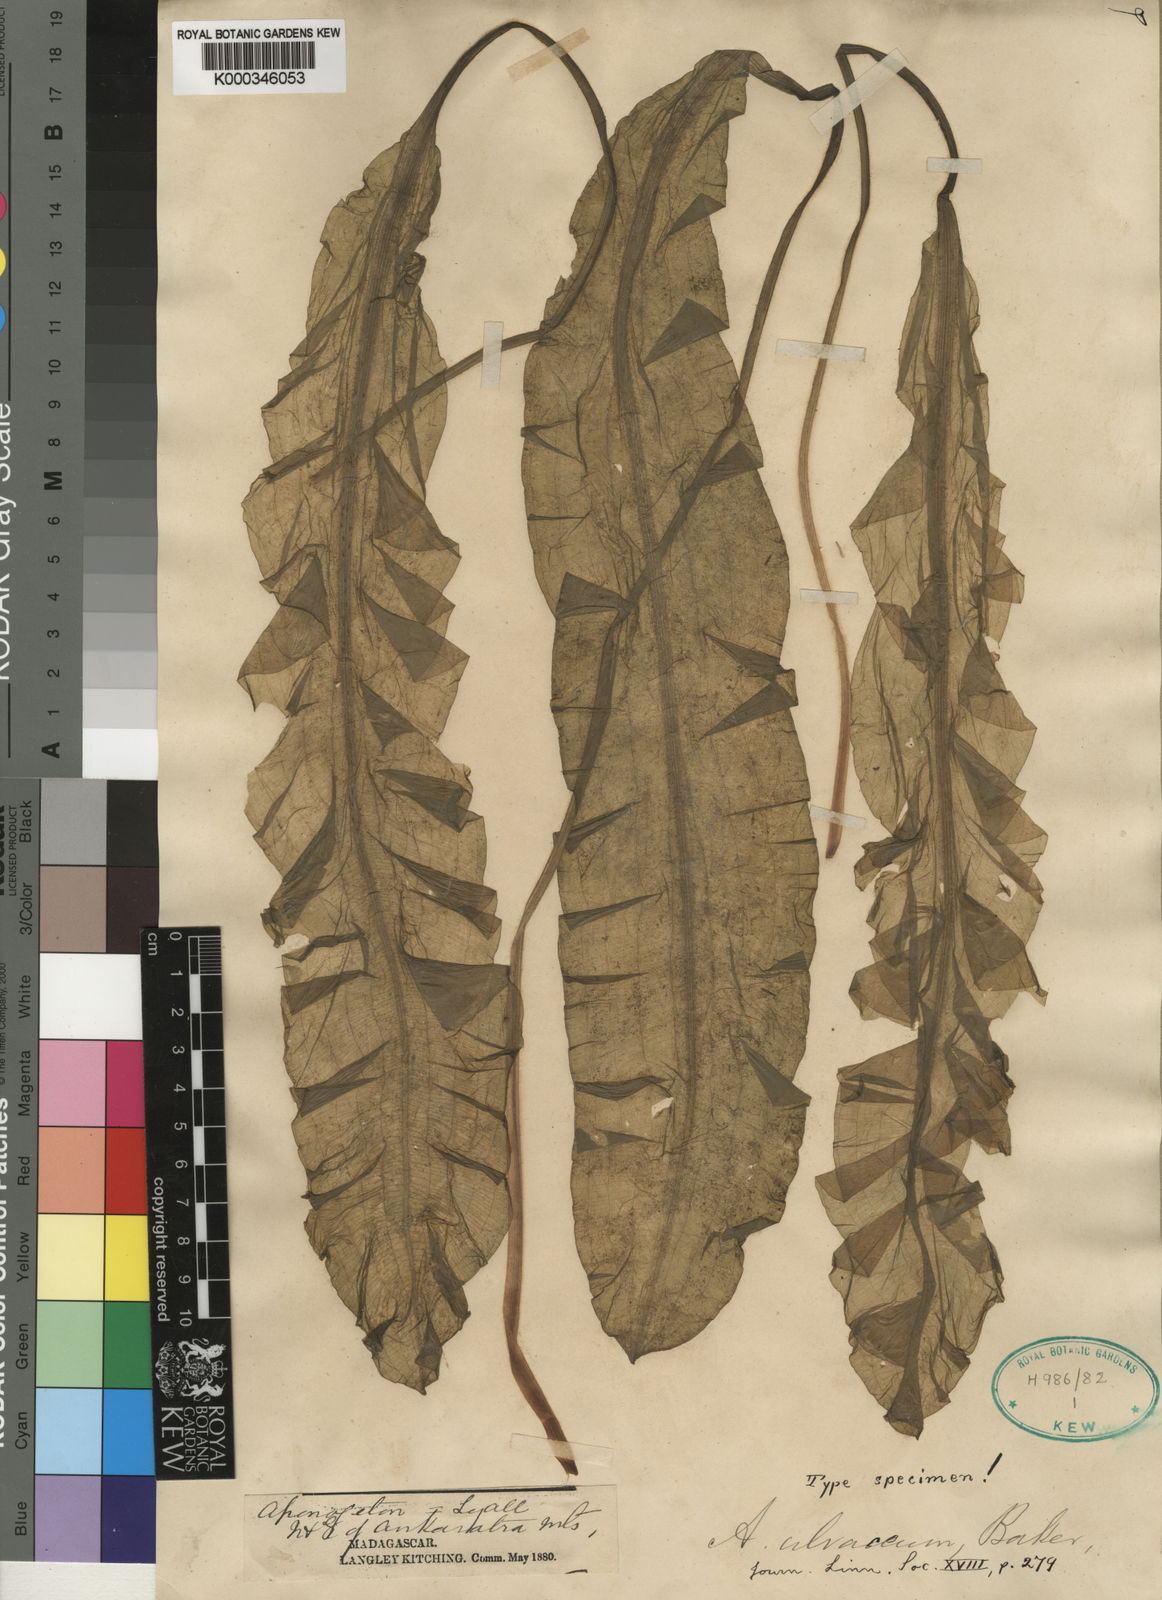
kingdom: Plantae
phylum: Tracheophyta
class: Liliopsida
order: Alismatales
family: Aponogetonaceae
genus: Aponogeton
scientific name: Aponogeton ulvaceus
